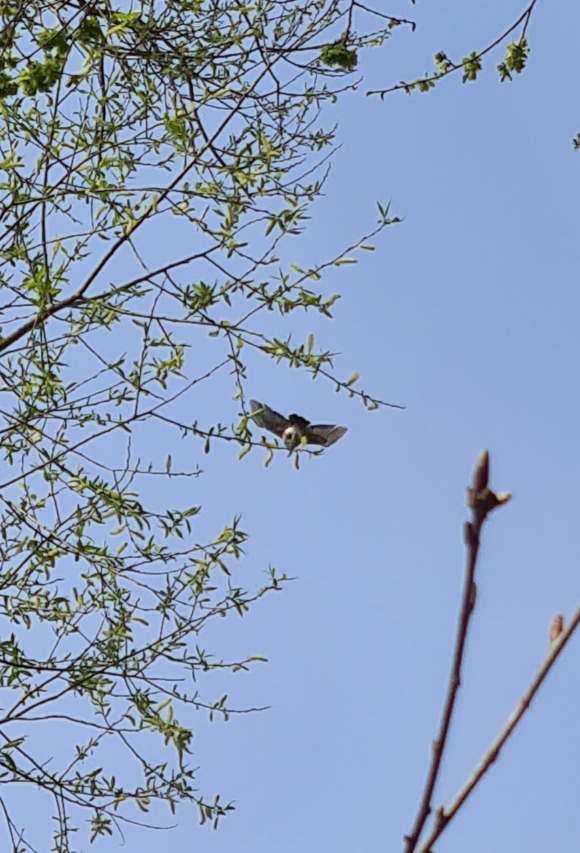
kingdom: Animalia
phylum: Chordata
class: Aves
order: Passeriformes
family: Corvidae
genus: Garrulus
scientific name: Garrulus glandarius
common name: Skovskade
